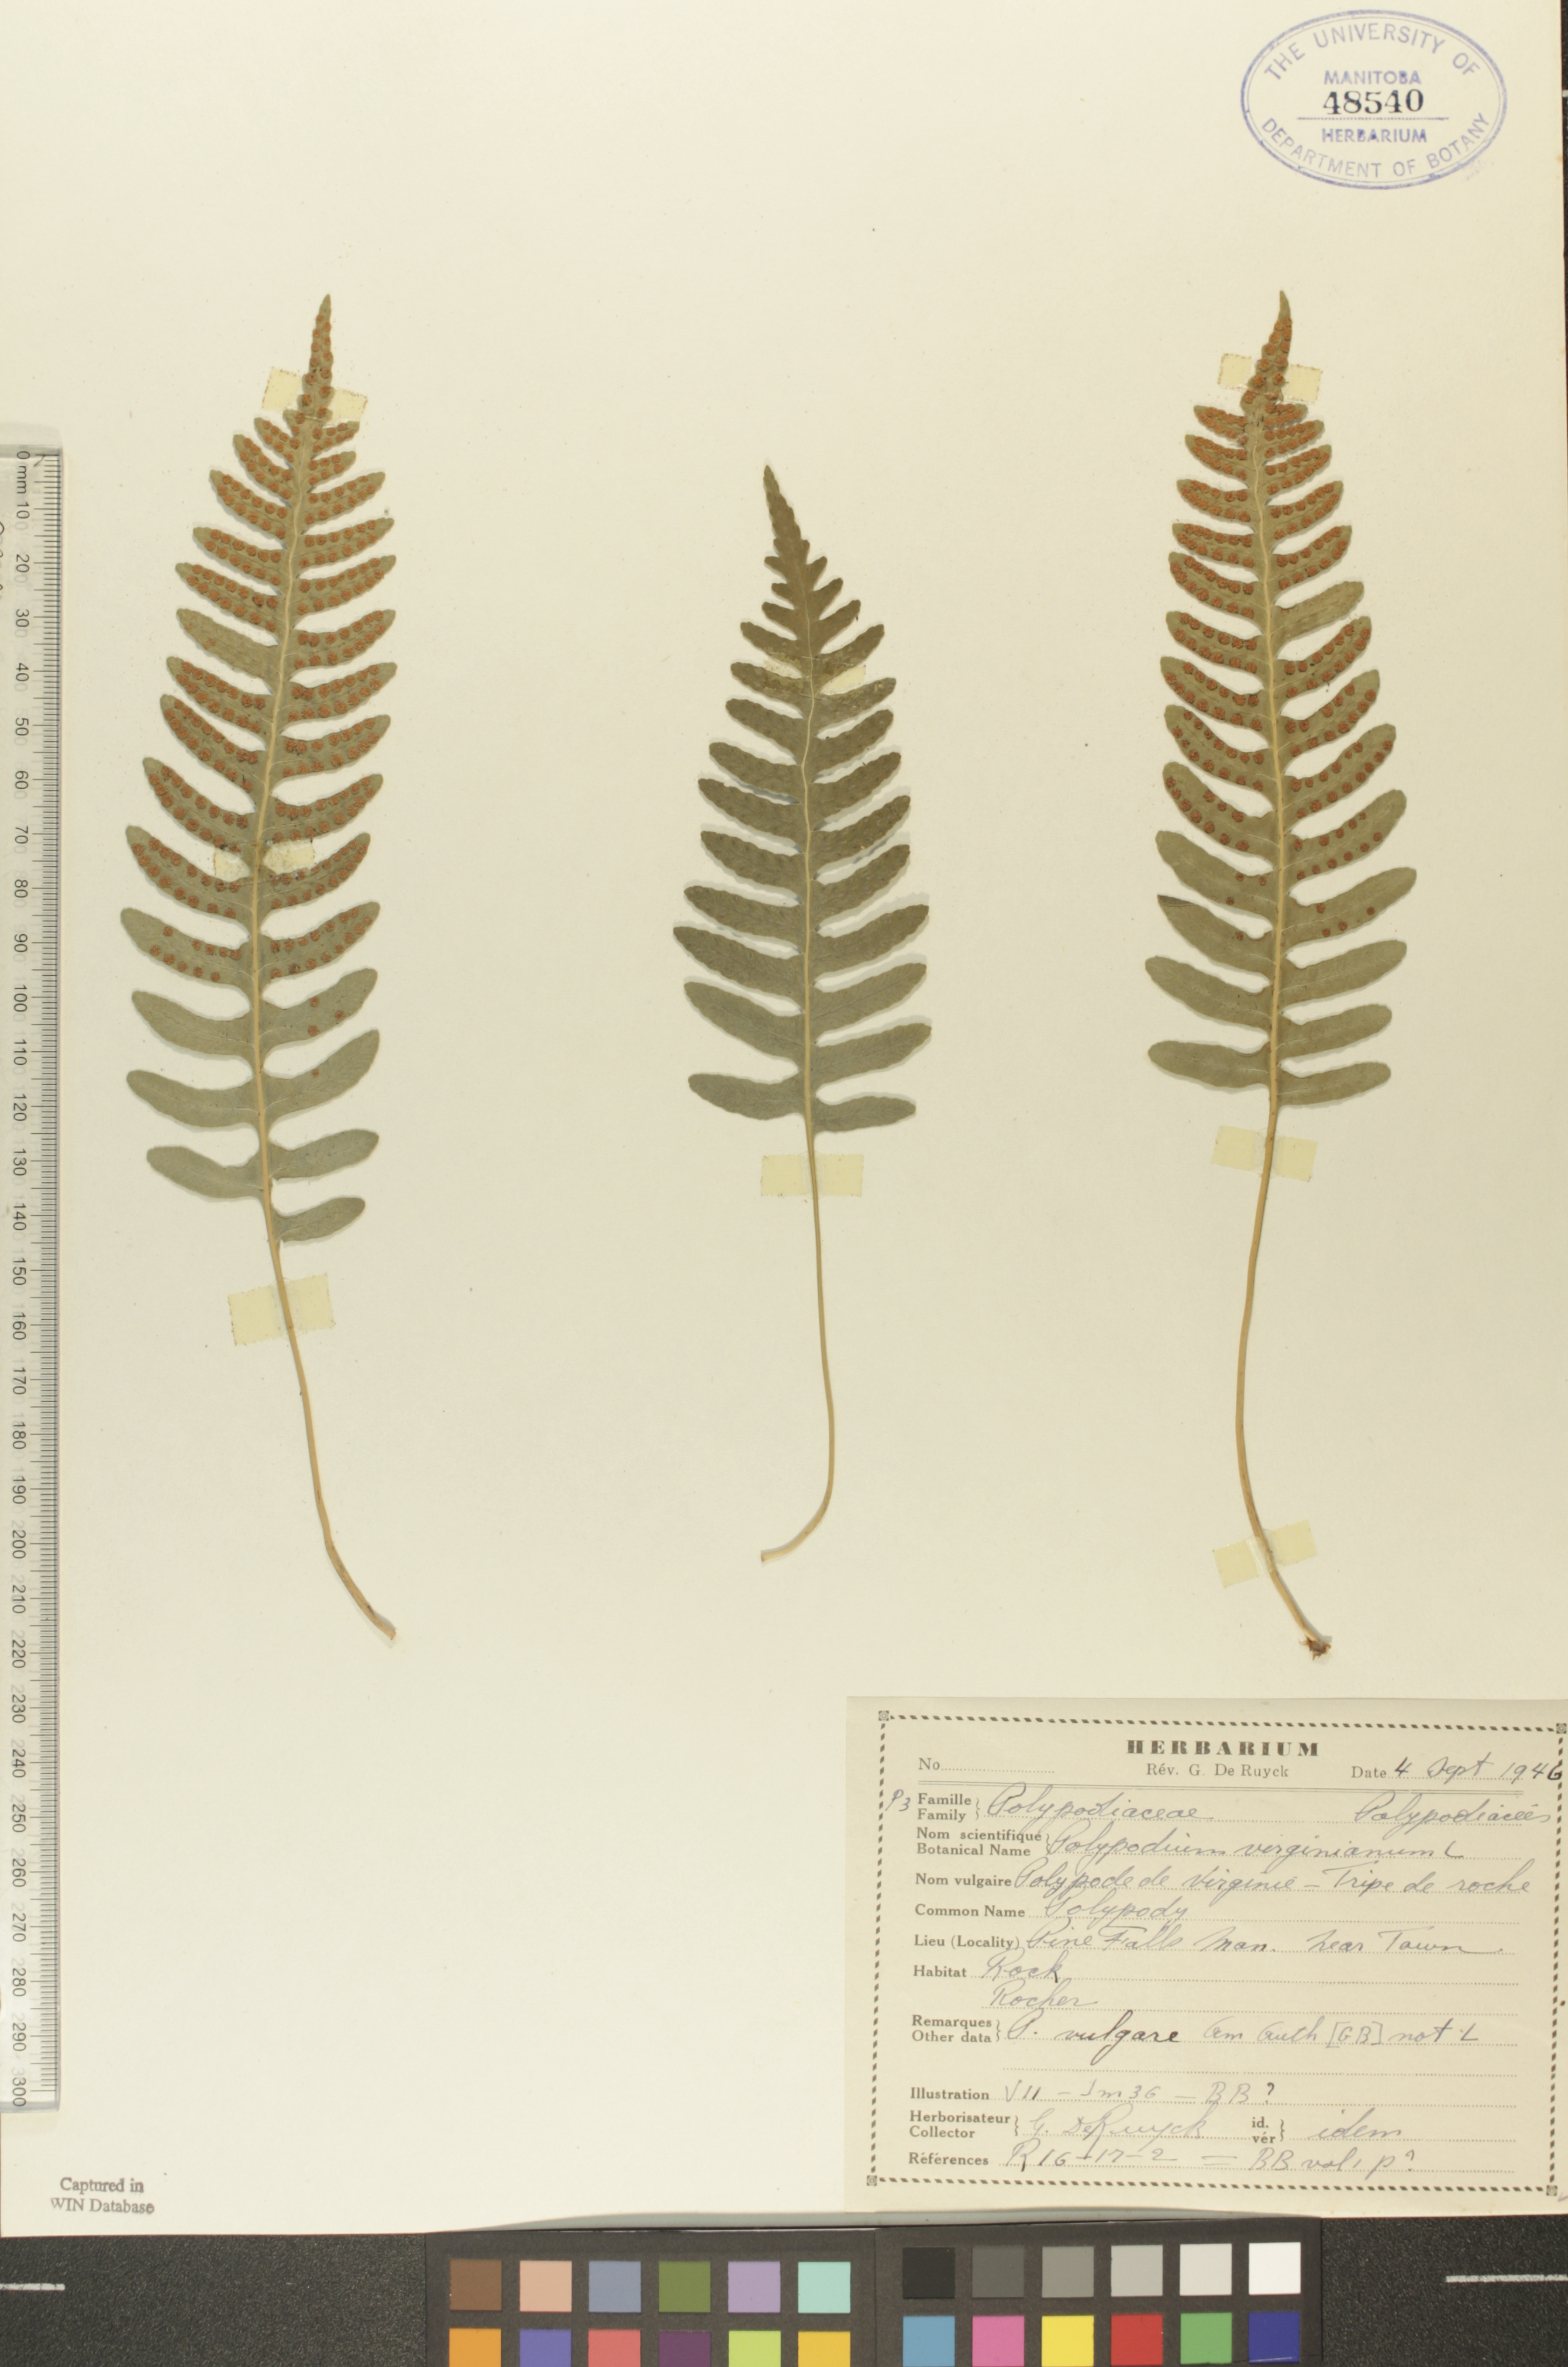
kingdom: Plantae
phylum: Tracheophyta
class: Polypodiopsida
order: Polypodiales
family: Polypodiaceae
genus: Polypodium
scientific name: Polypodium virginianum
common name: American wall fern
